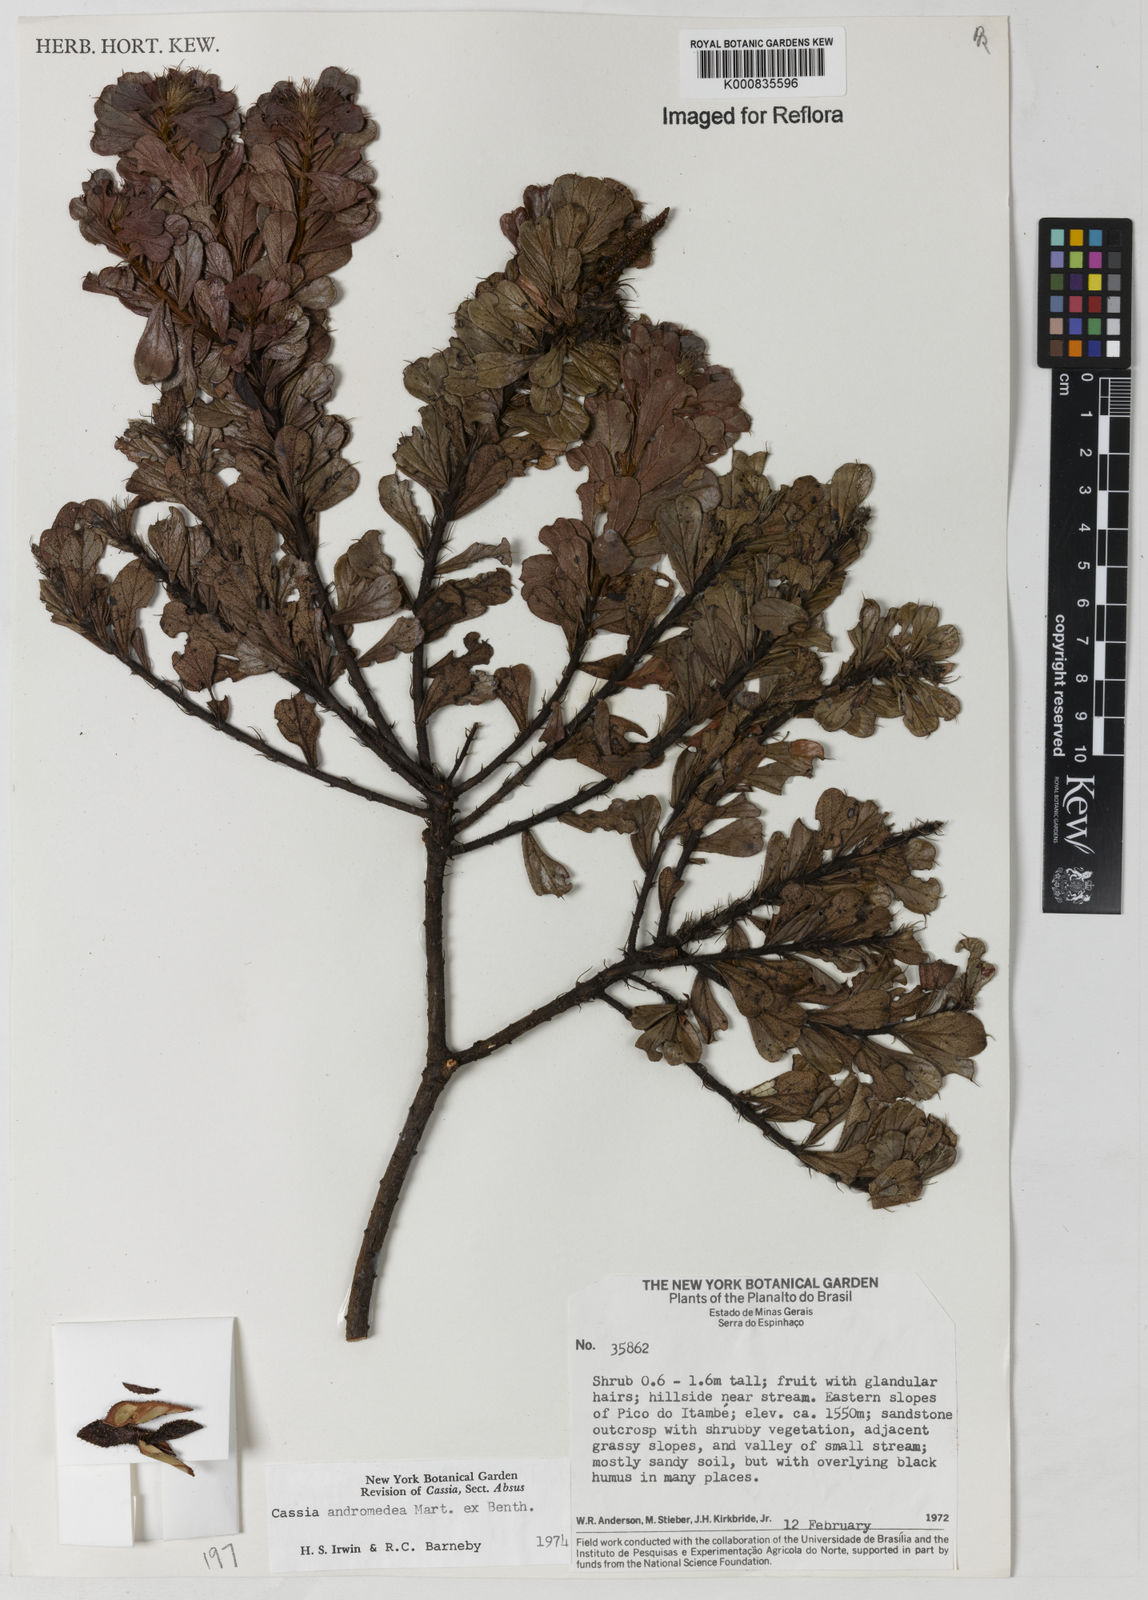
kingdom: Plantae
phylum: Tracheophyta
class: Magnoliopsida
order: Fabales
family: Fabaceae
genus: Chamaecrista
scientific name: Chamaecrista andromedea
